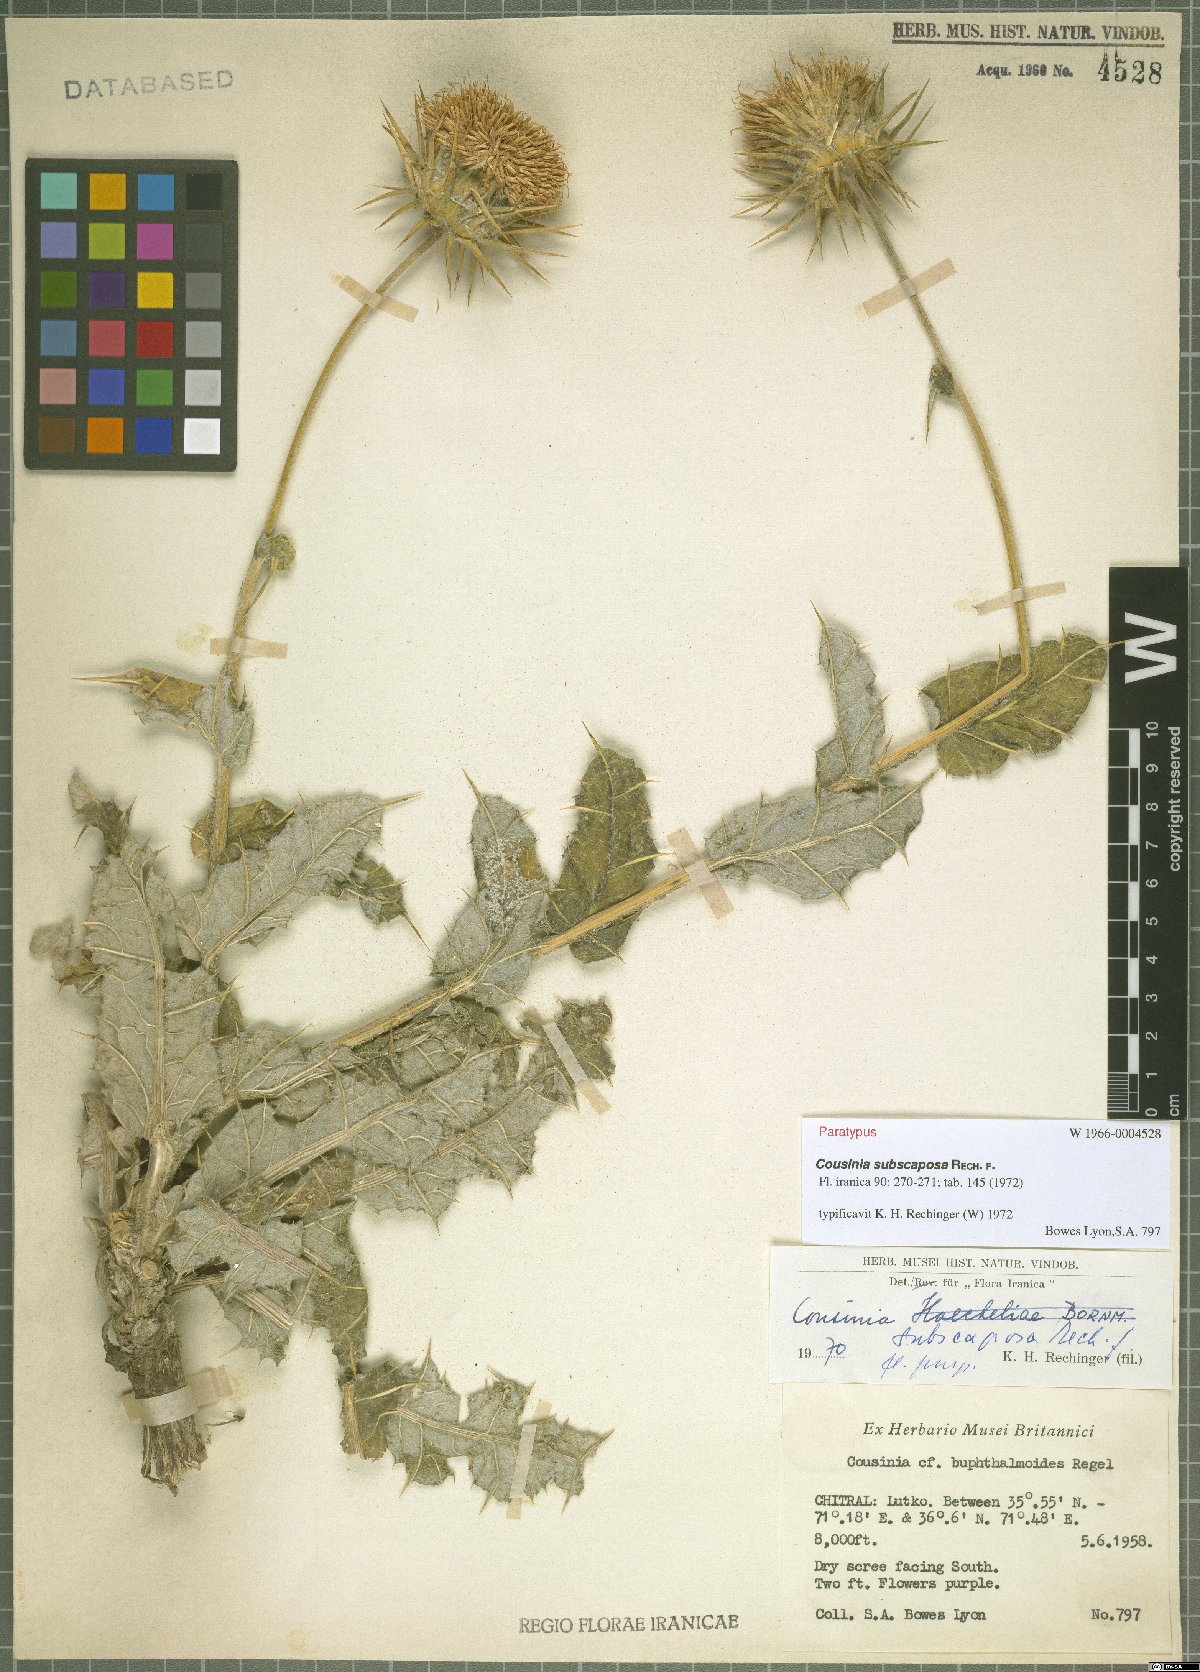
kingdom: Plantae
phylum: Tracheophyta
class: Magnoliopsida
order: Asterales
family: Asteraceae
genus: Cousinia
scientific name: Cousinia subscaposa
